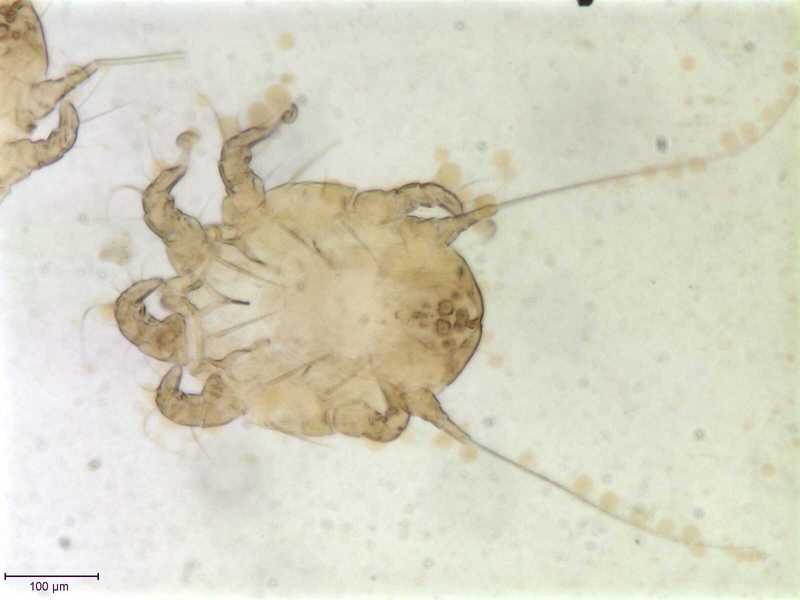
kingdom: Animalia
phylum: Arthropoda
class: Arachnida
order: Sarcoptiformes
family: Chaetodactylidae
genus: Sennertia
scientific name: Sennertia caffra
